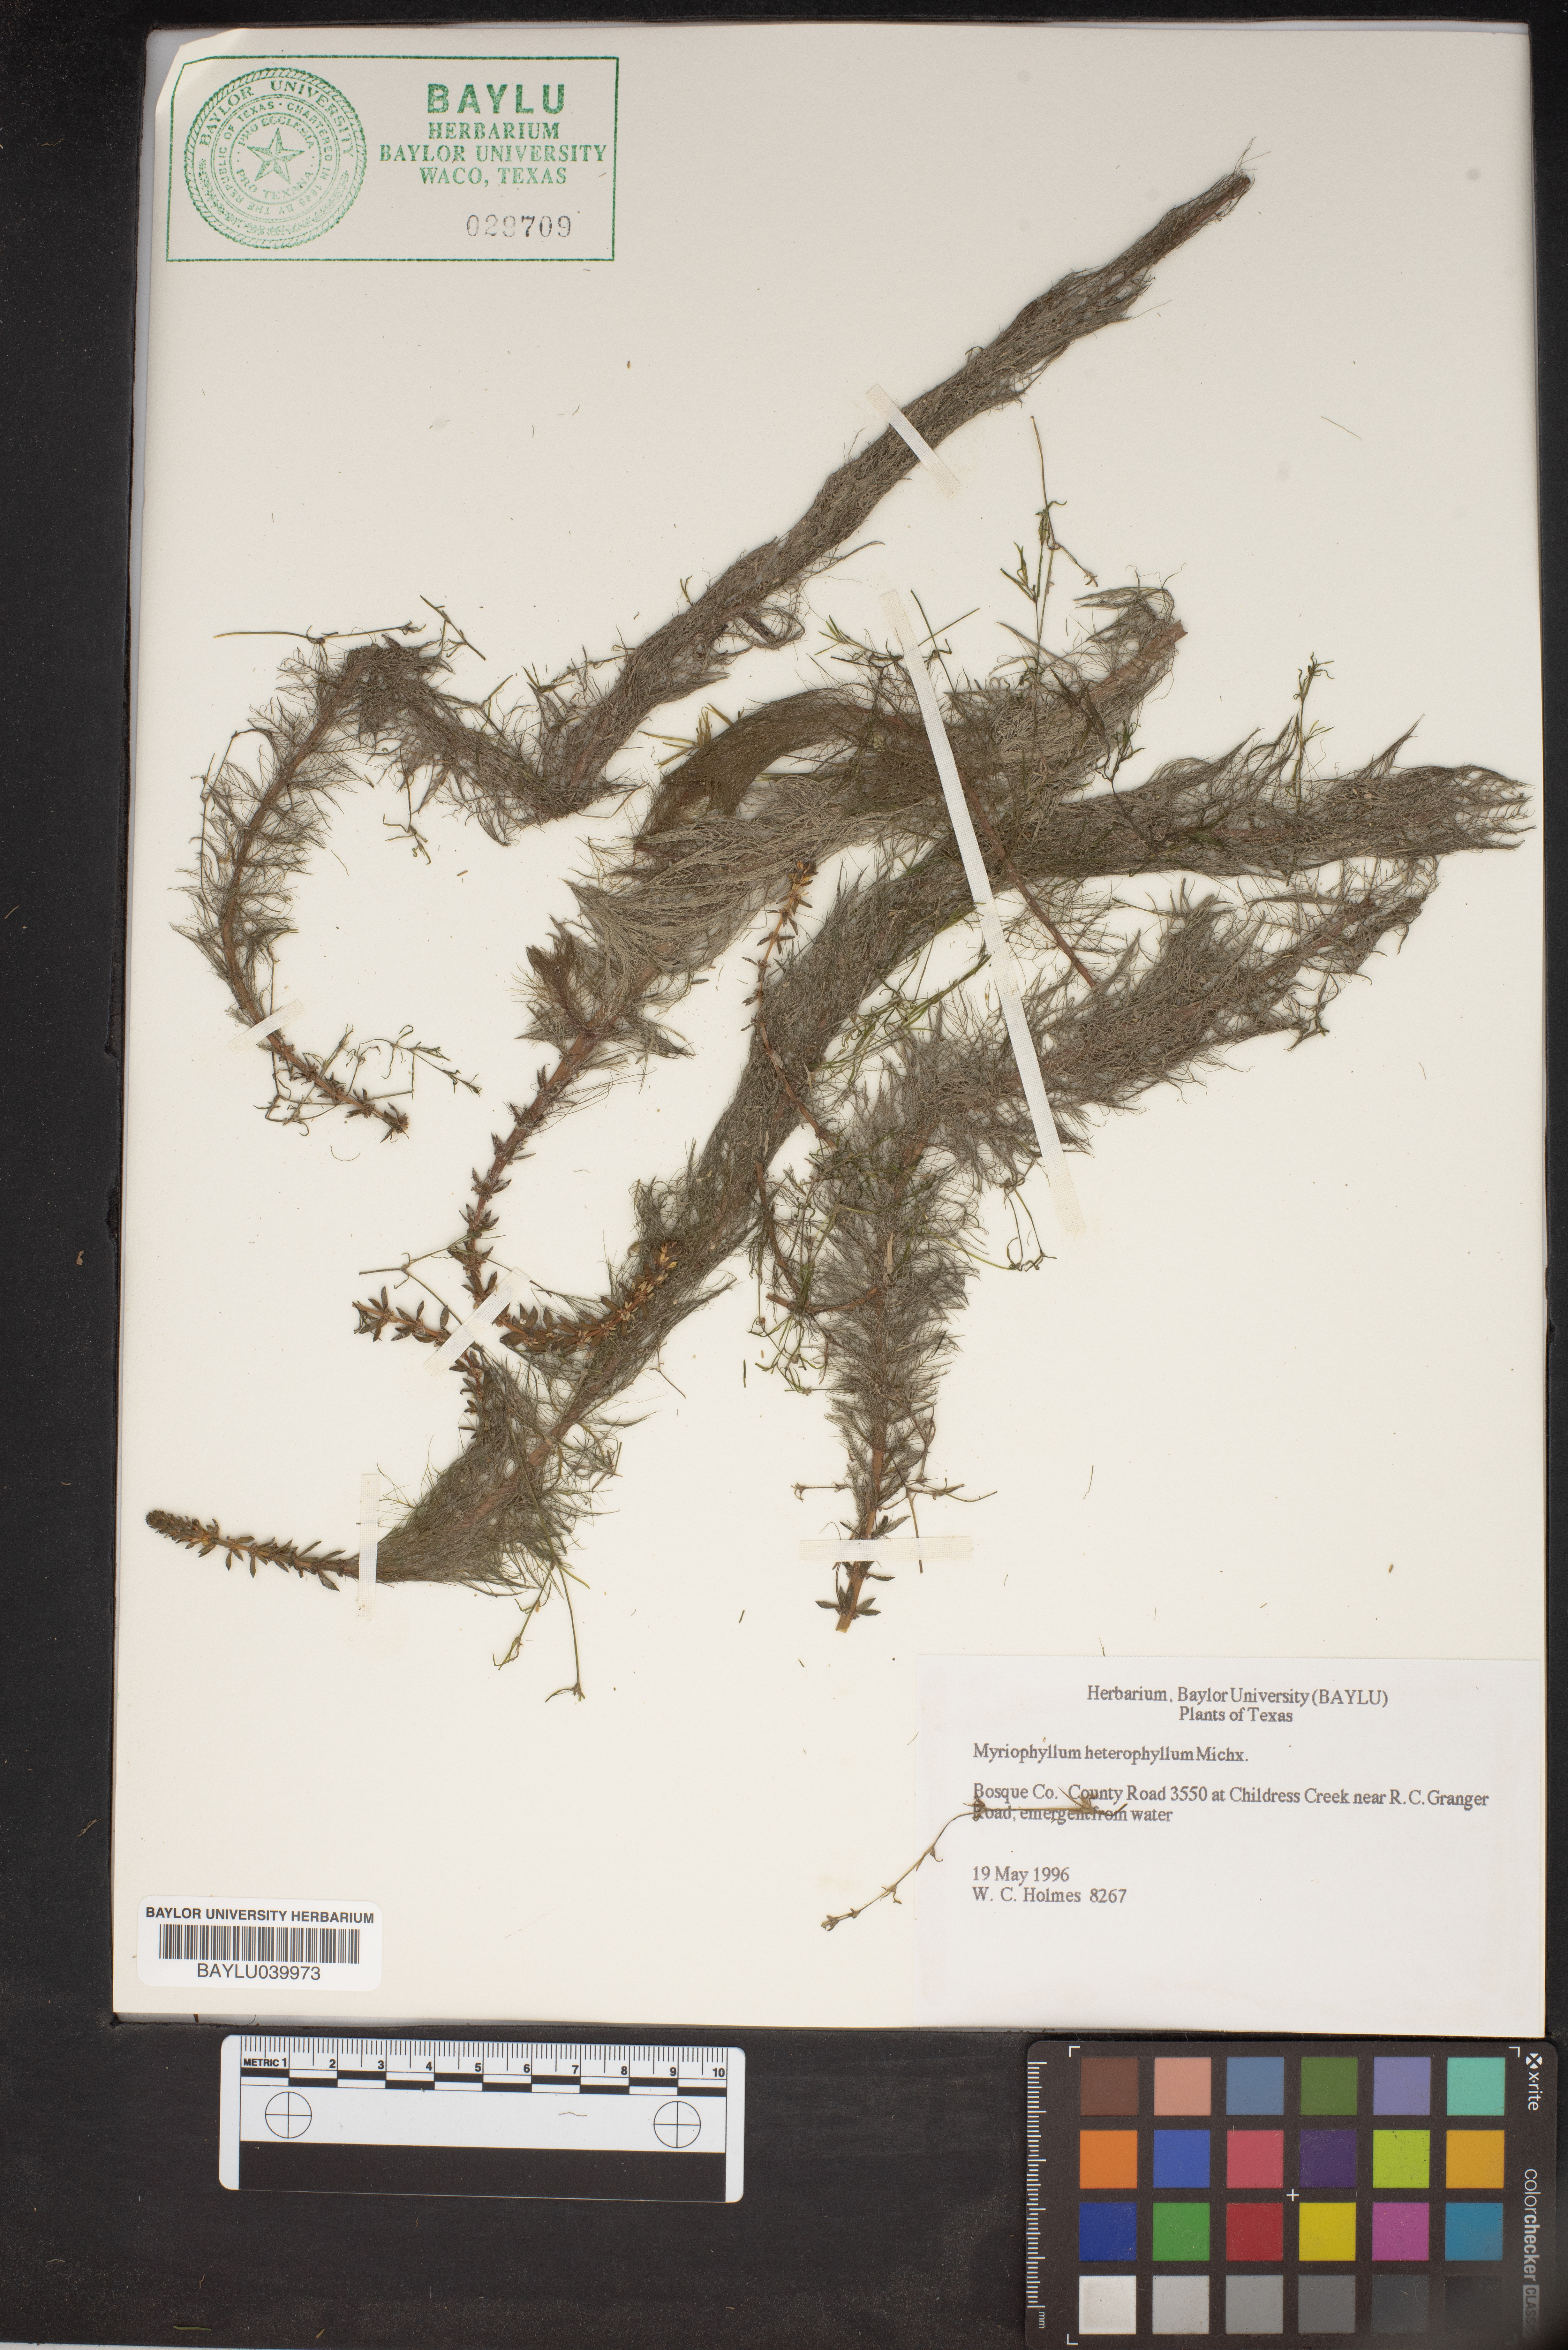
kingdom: Plantae
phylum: Tracheophyta
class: Magnoliopsida
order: Saxifragales
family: Haloragaceae
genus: Myriophyllum
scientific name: Myriophyllum heterophyllum
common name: Variable watermilfoil
